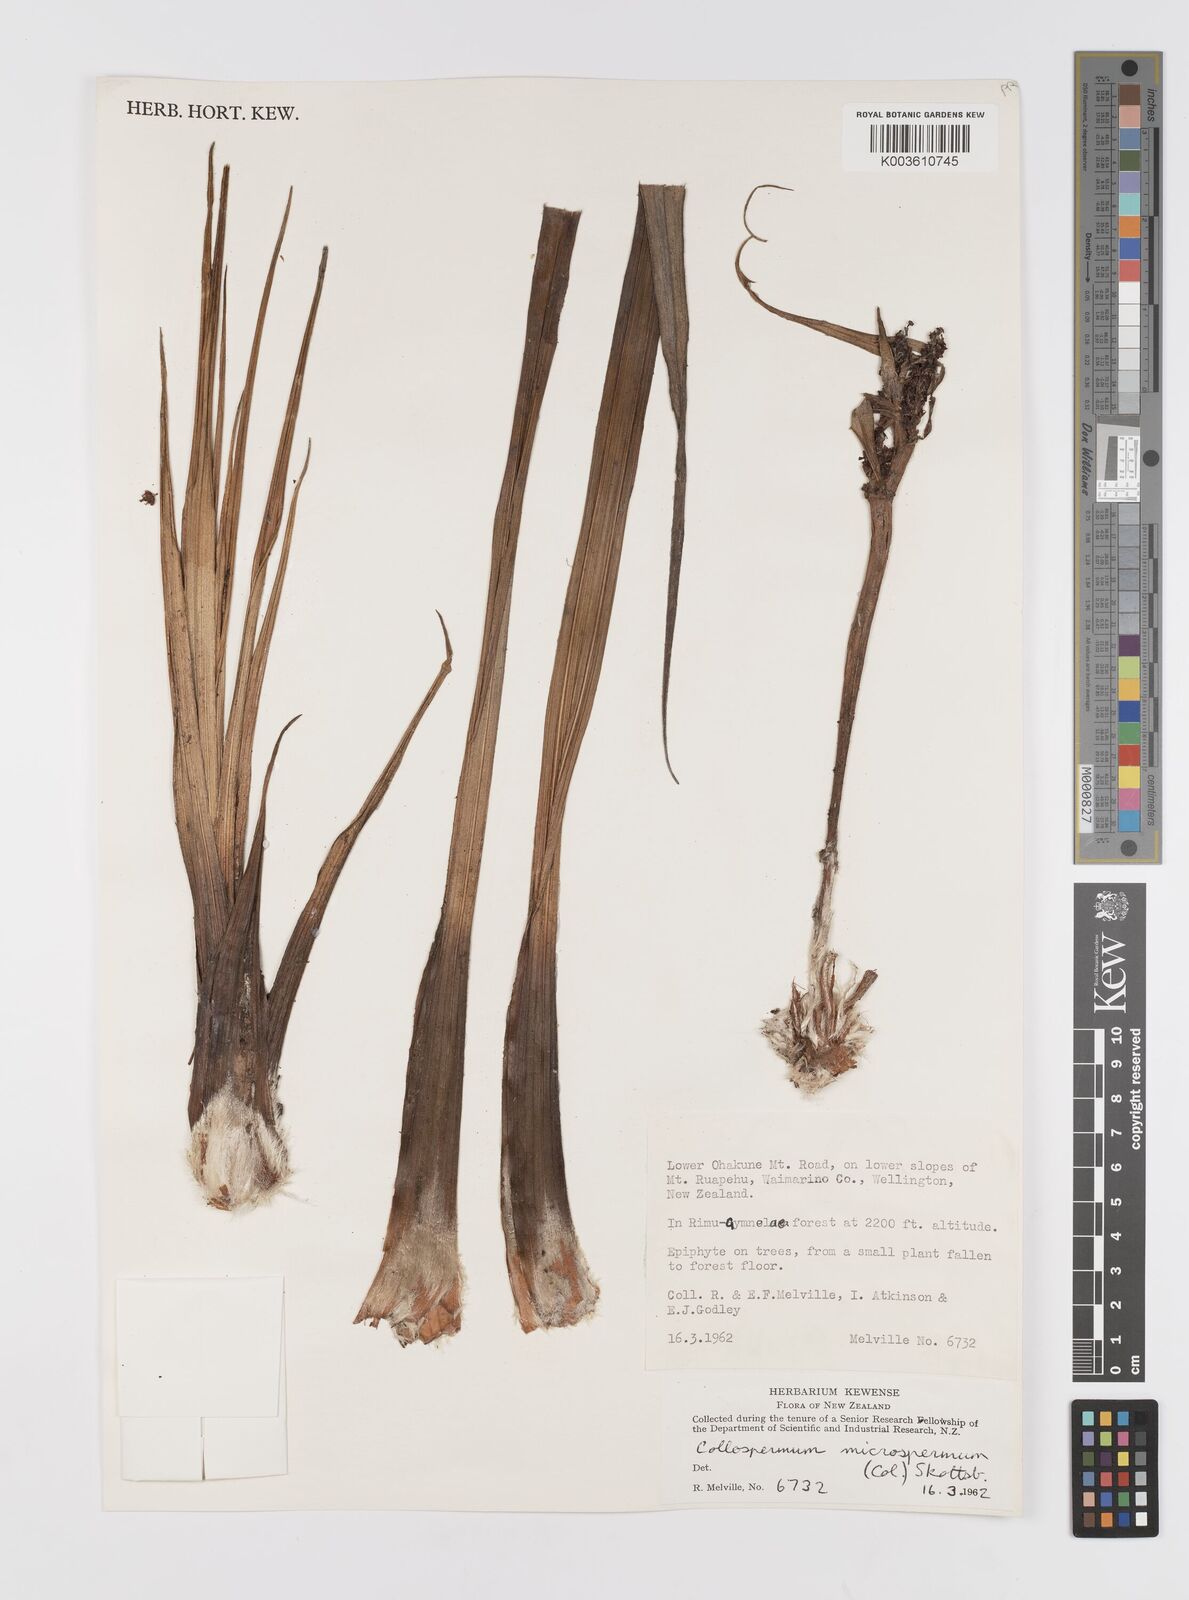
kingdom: Plantae
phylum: Tracheophyta
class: Liliopsida
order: Asparagales
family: Asteliaceae
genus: Astelia
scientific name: Astelia microsperma
